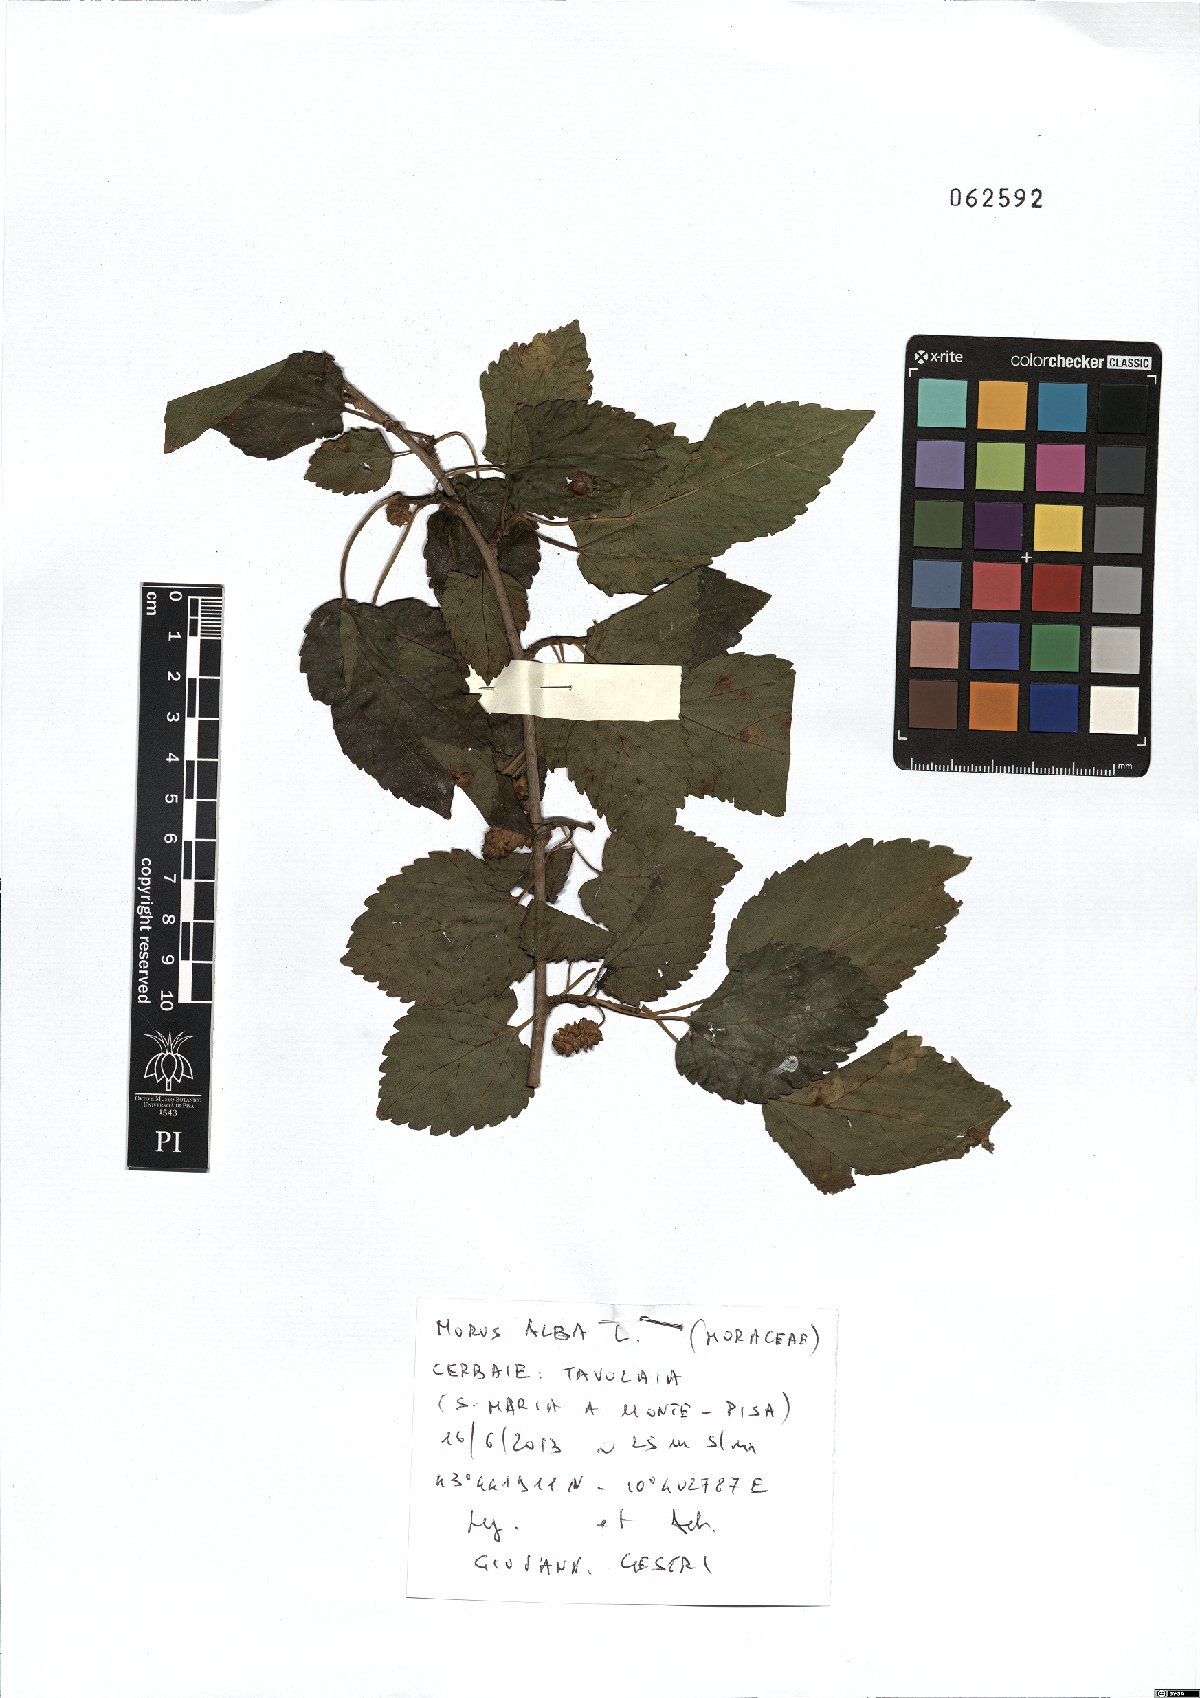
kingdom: Plantae
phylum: Tracheophyta
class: Magnoliopsida
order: Rosales
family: Moraceae
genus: Morus
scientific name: Morus alba
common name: White mulberry
